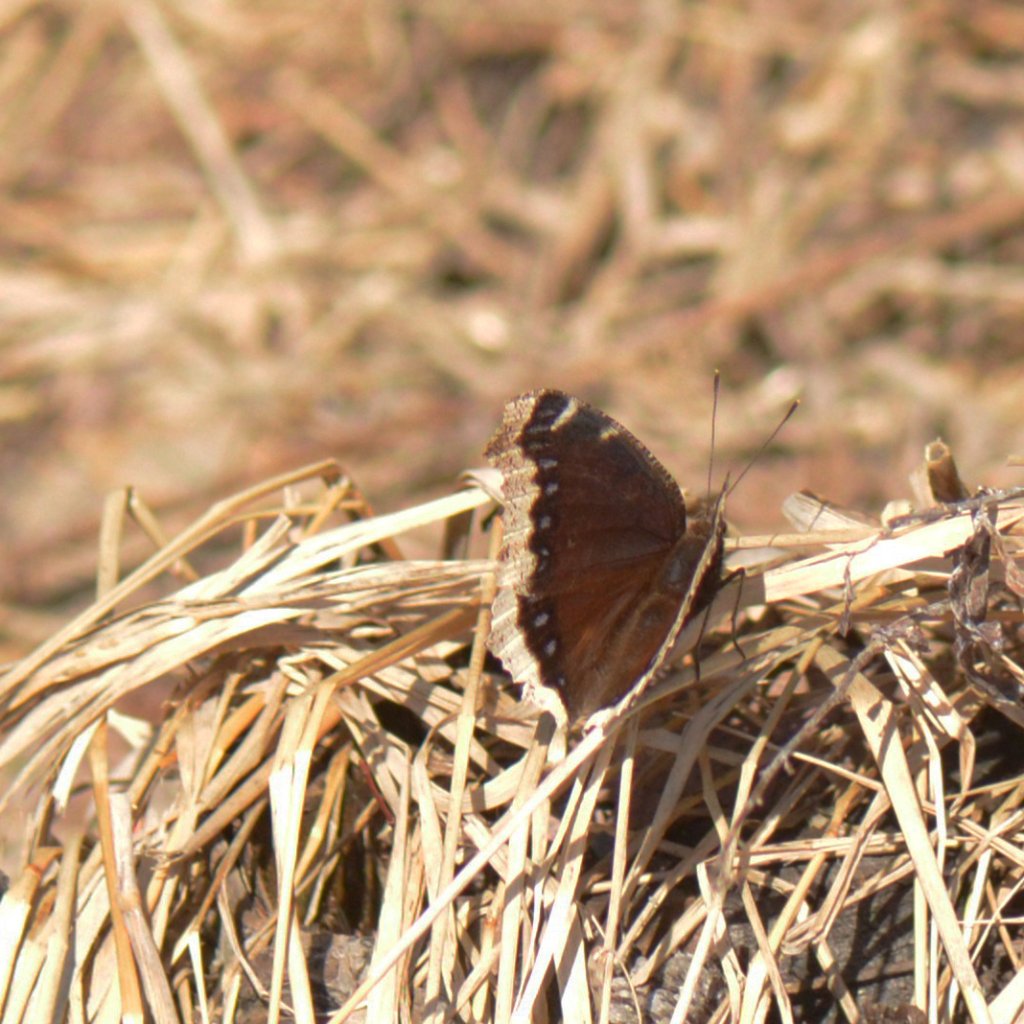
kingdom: Animalia
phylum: Arthropoda
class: Insecta
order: Lepidoptera
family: Nymphalidae
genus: Nymphalis
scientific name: Nymphalis antiopa
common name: Mourning Cloak
